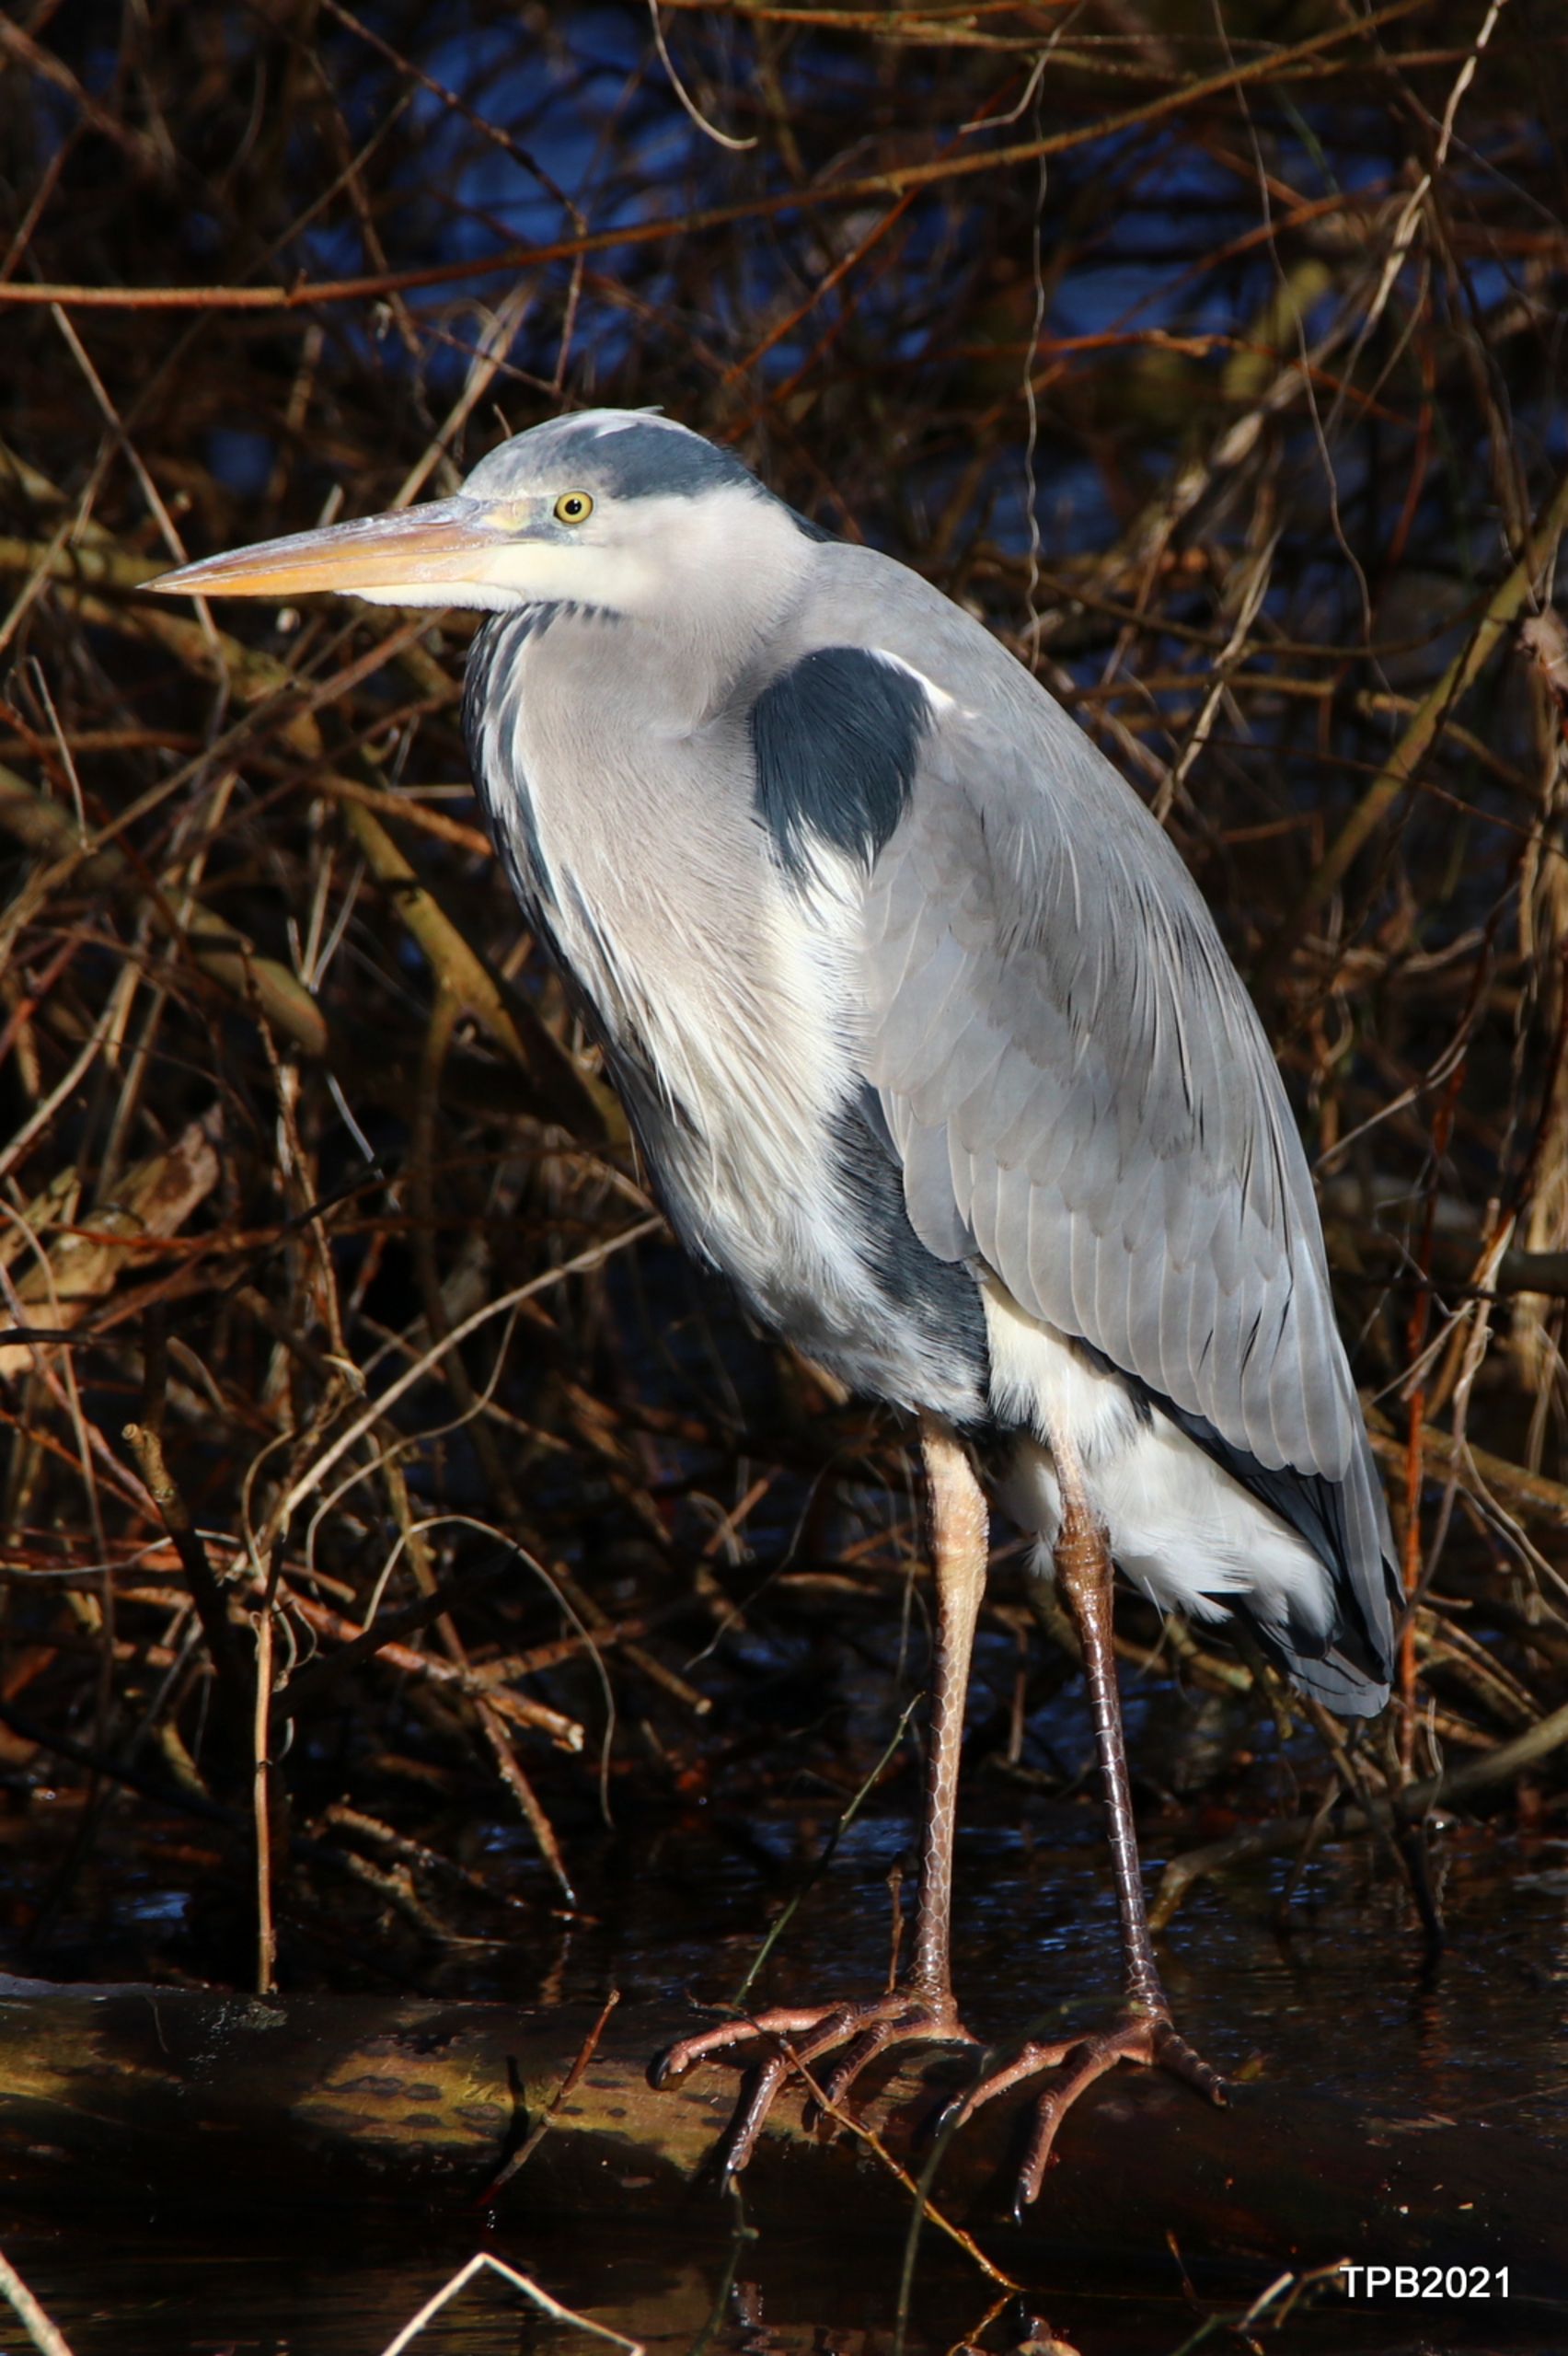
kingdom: Animalia
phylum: Chordata
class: Aves
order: Pelecaniformes
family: Ardeidae
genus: Ardea
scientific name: Ardea cinerea
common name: Fiskehejre
